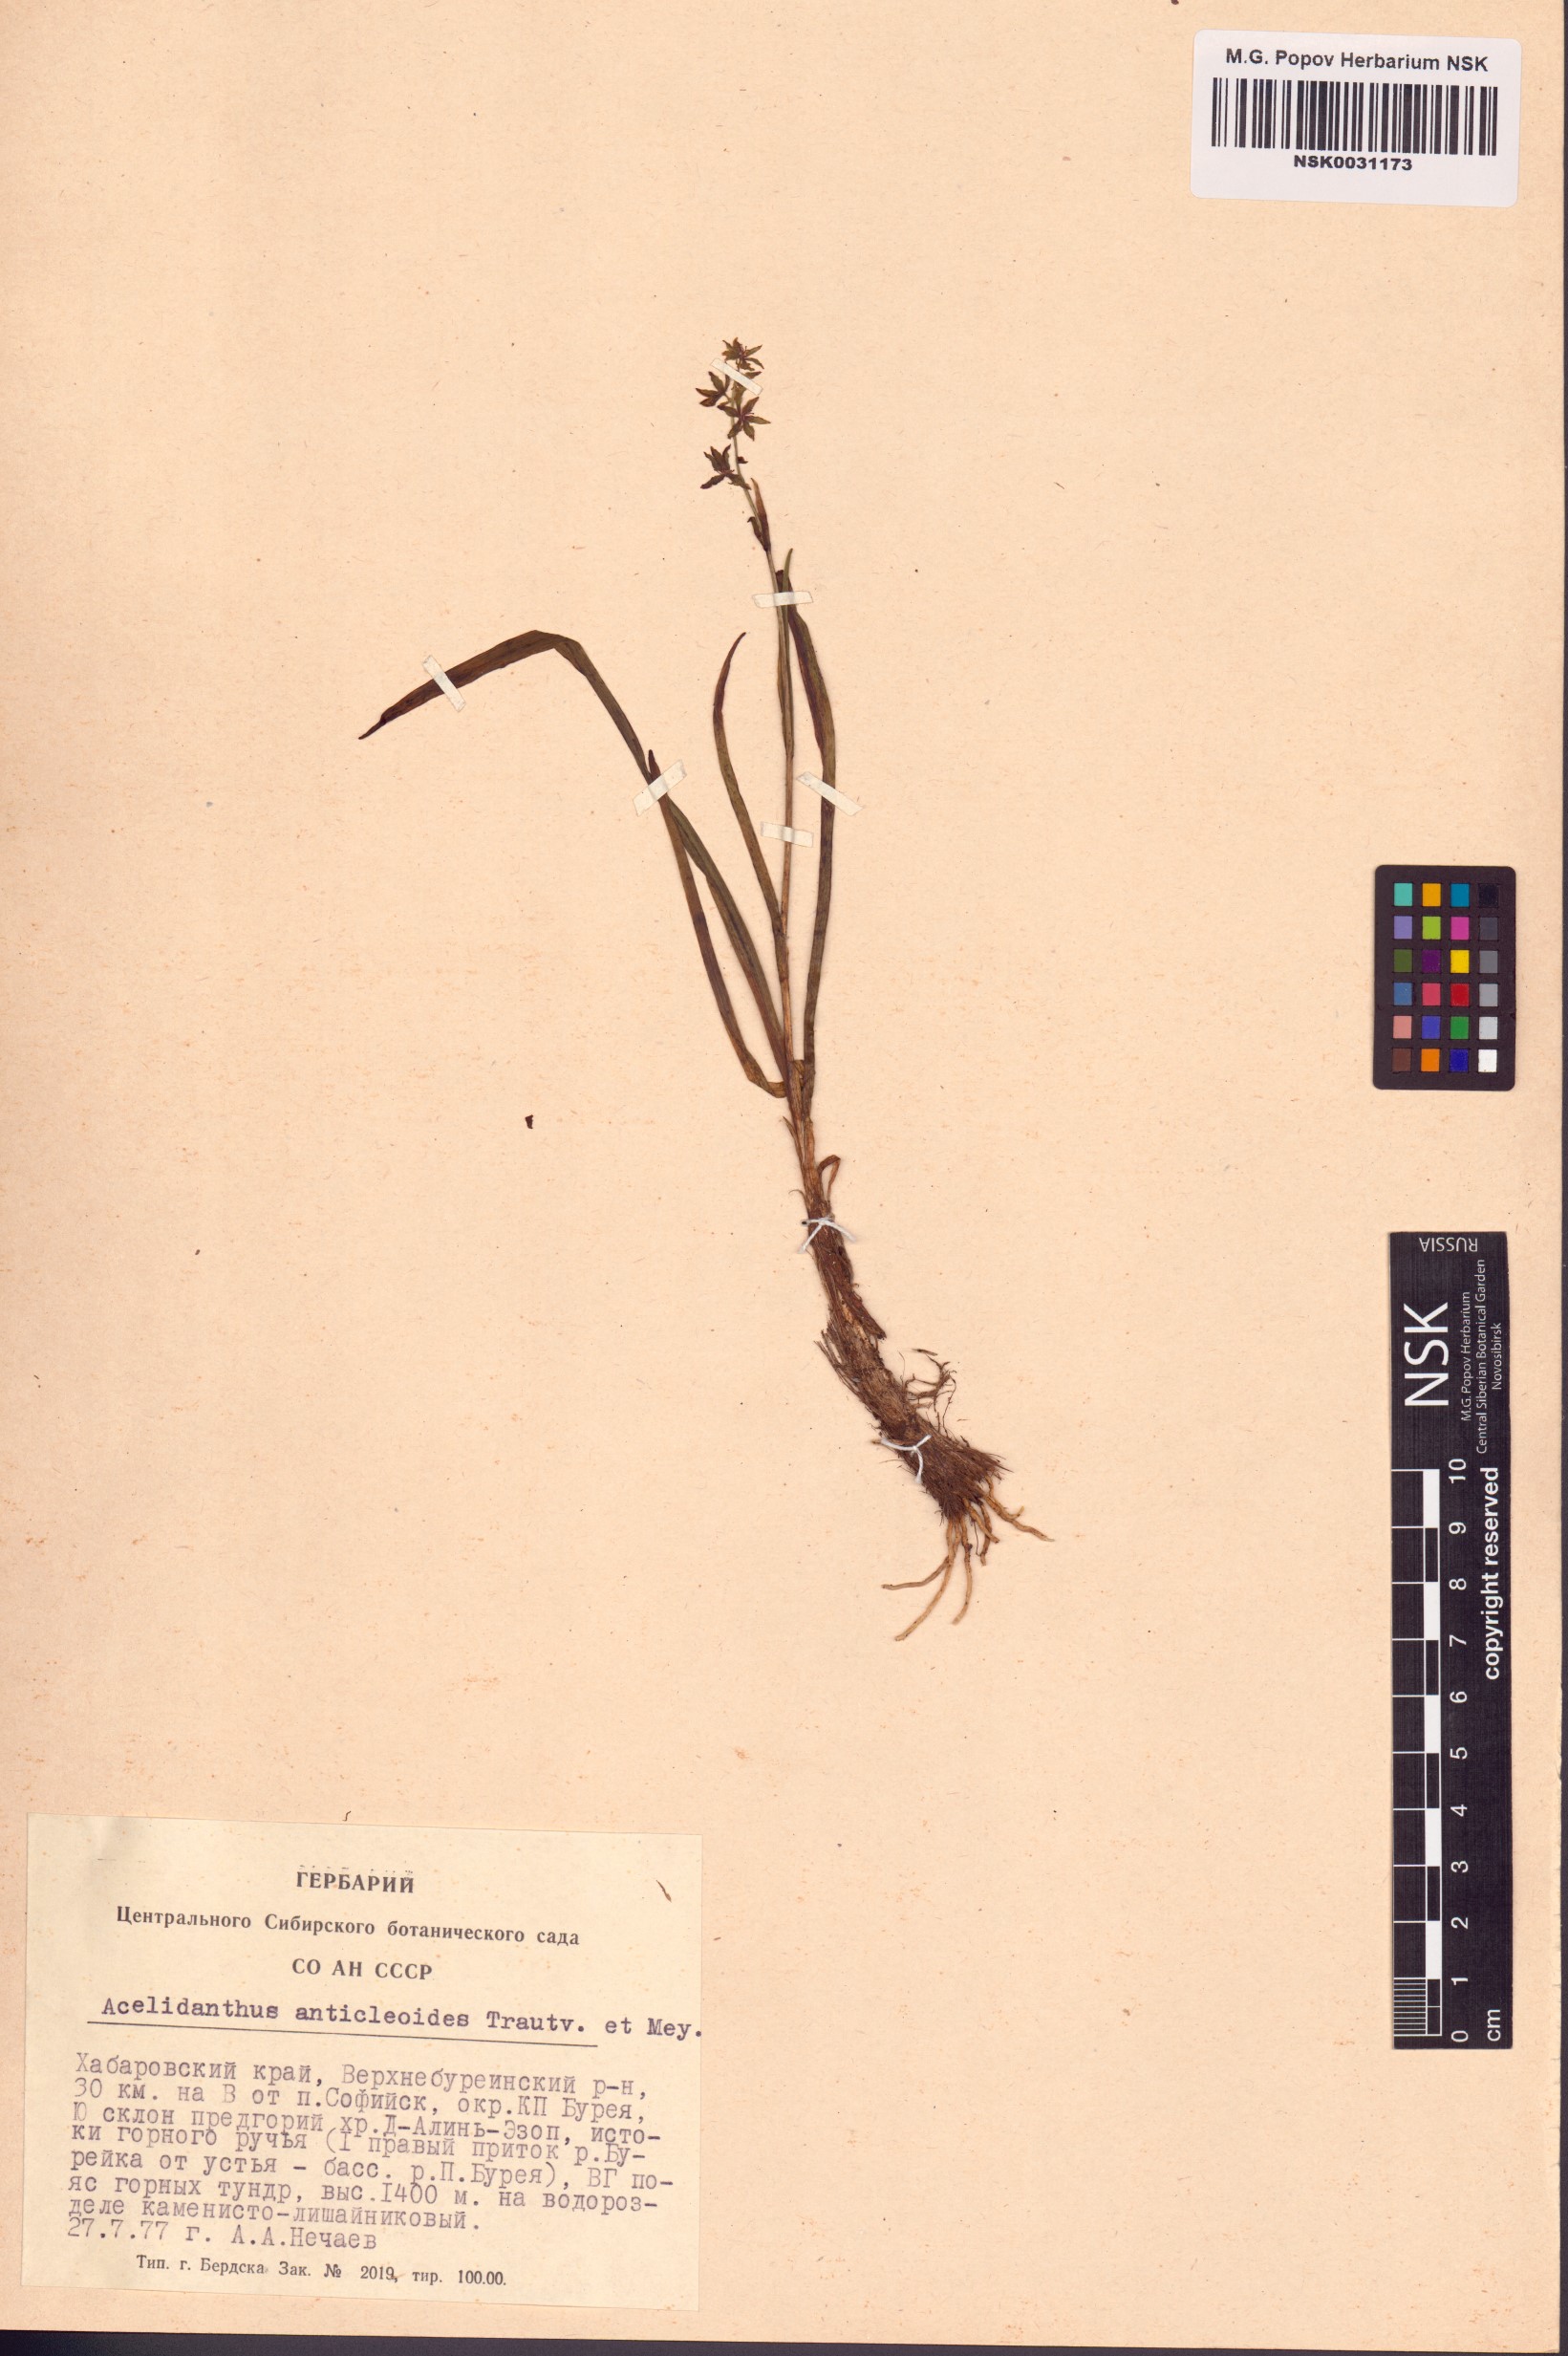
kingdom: Plantae
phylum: Tracheophyta
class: Liliopsida
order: Liliales
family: Melanthiaceae
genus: Veratrum
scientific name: Veratrum anticleoides
